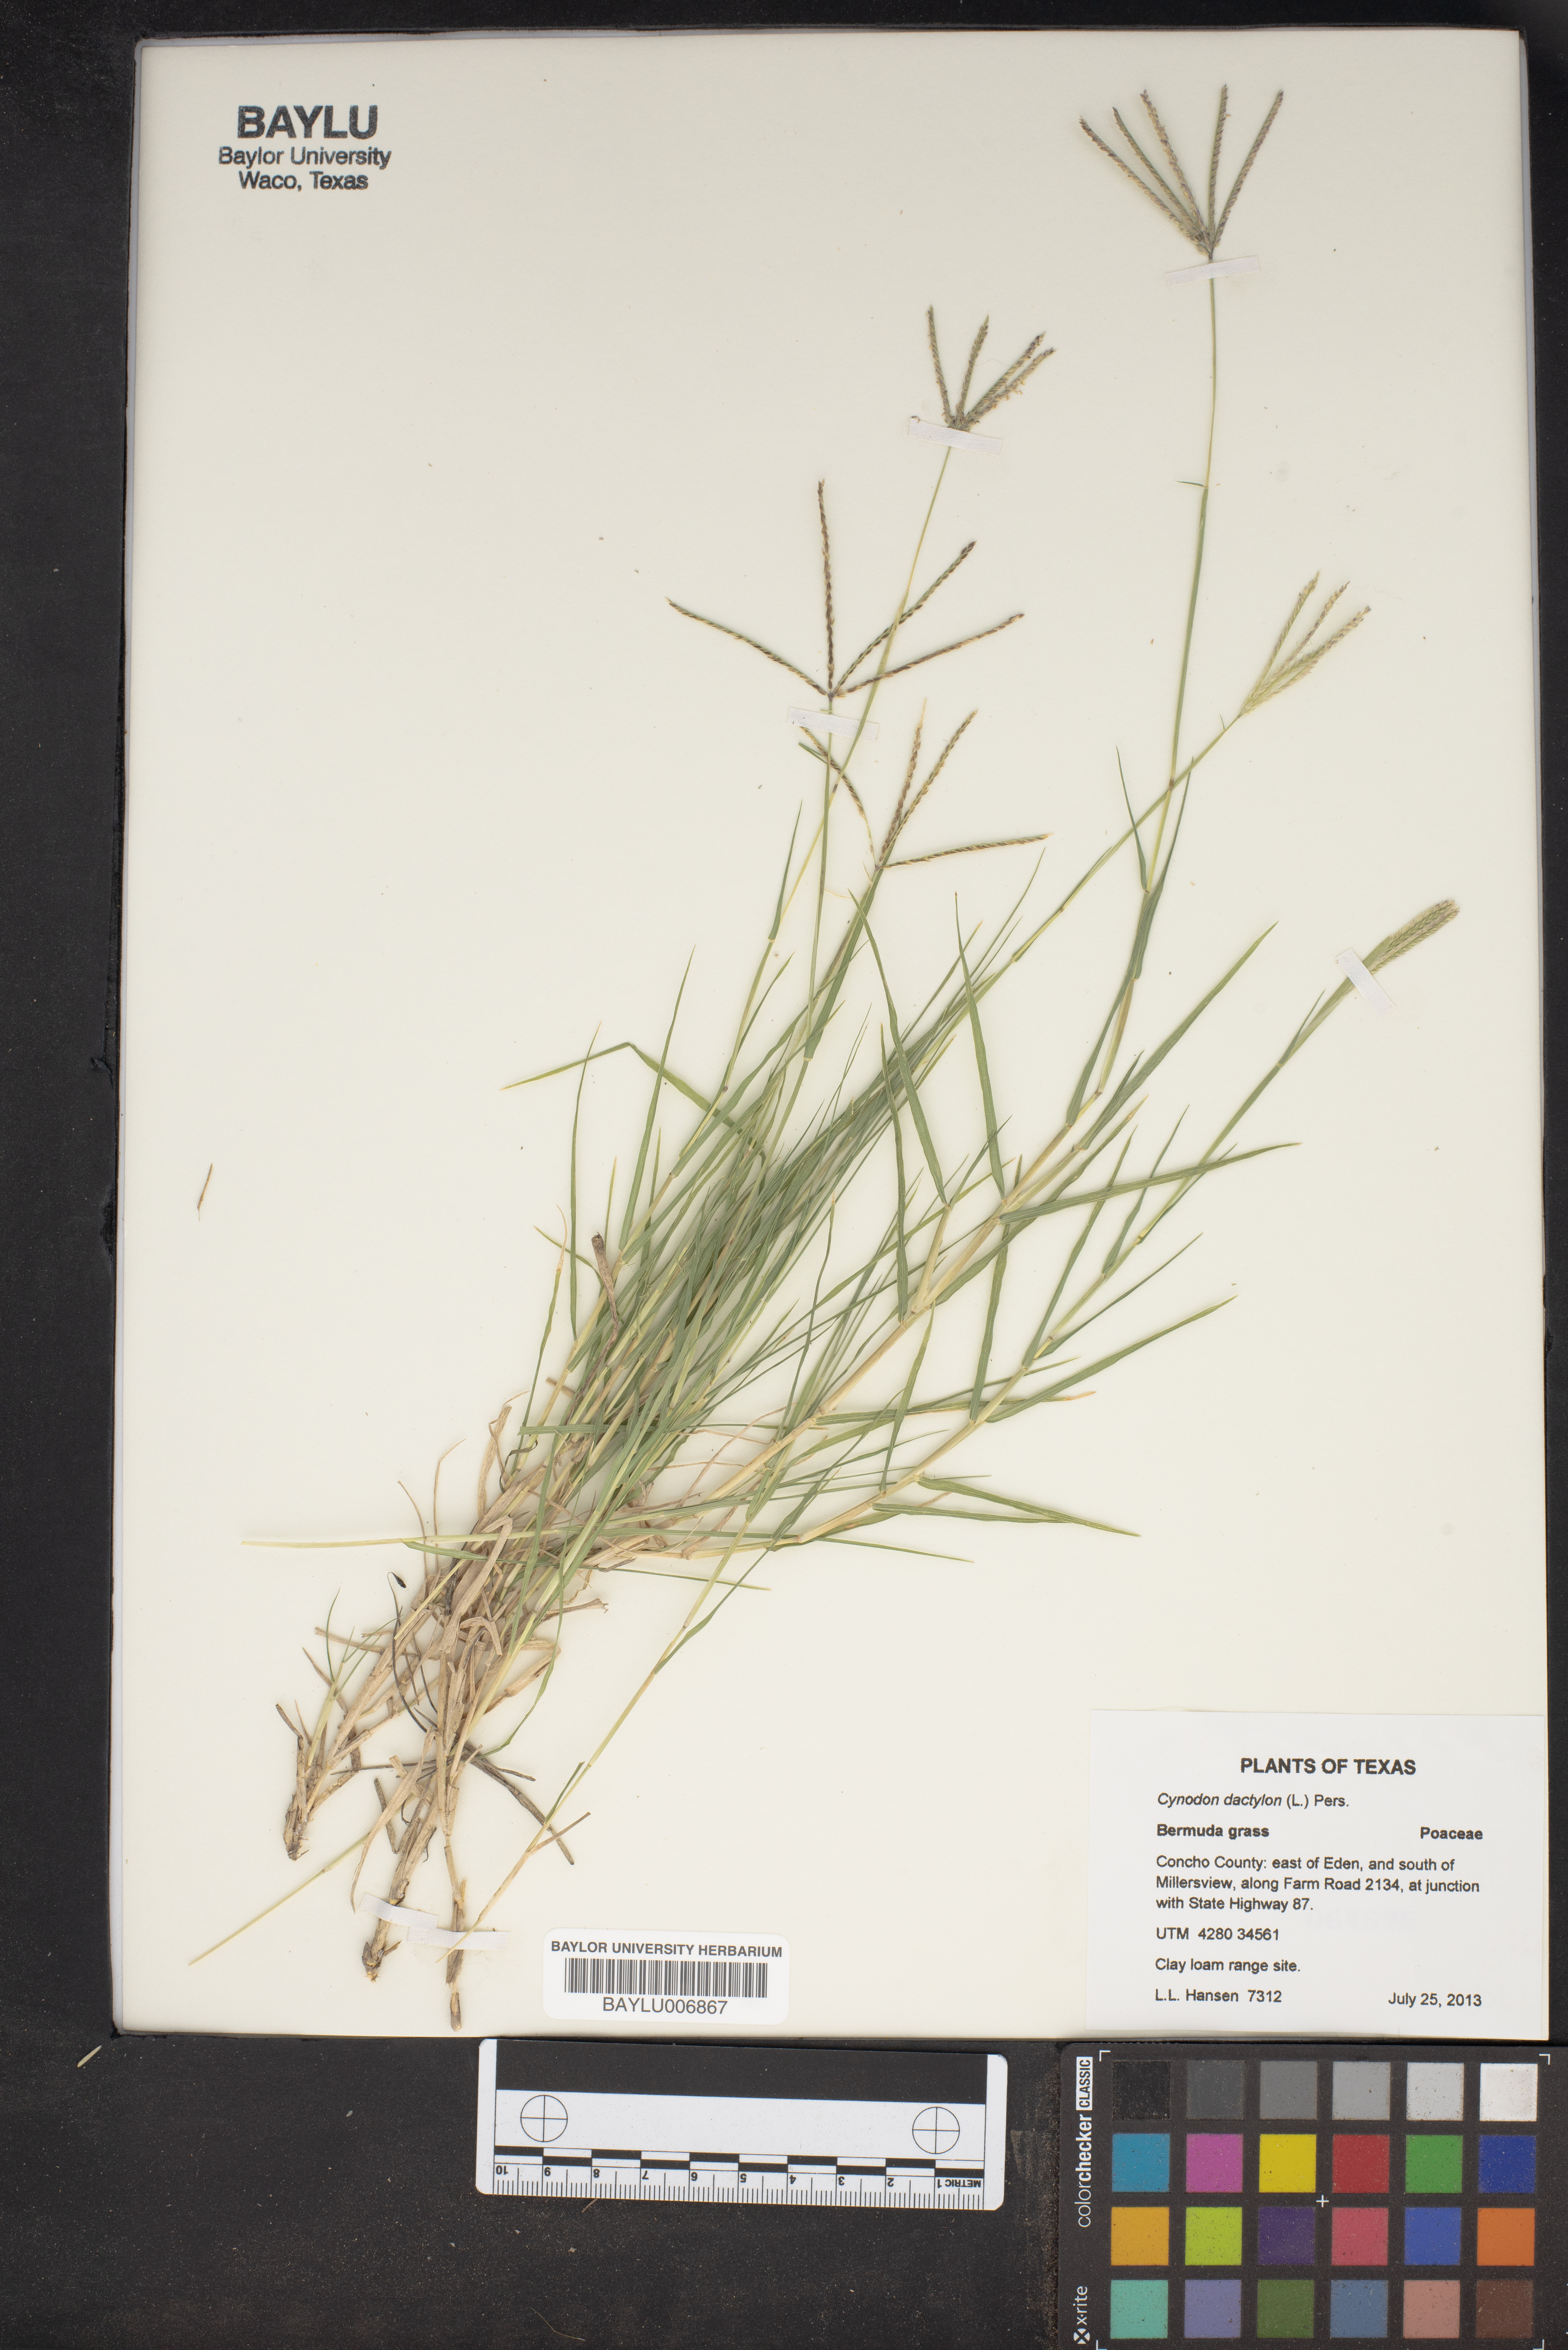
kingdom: Plantae
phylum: Tracheophyta
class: Liliopsida
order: Poales
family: Poaceae
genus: Cynodon
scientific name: Cynodon dactylon
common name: Bermuda grass
